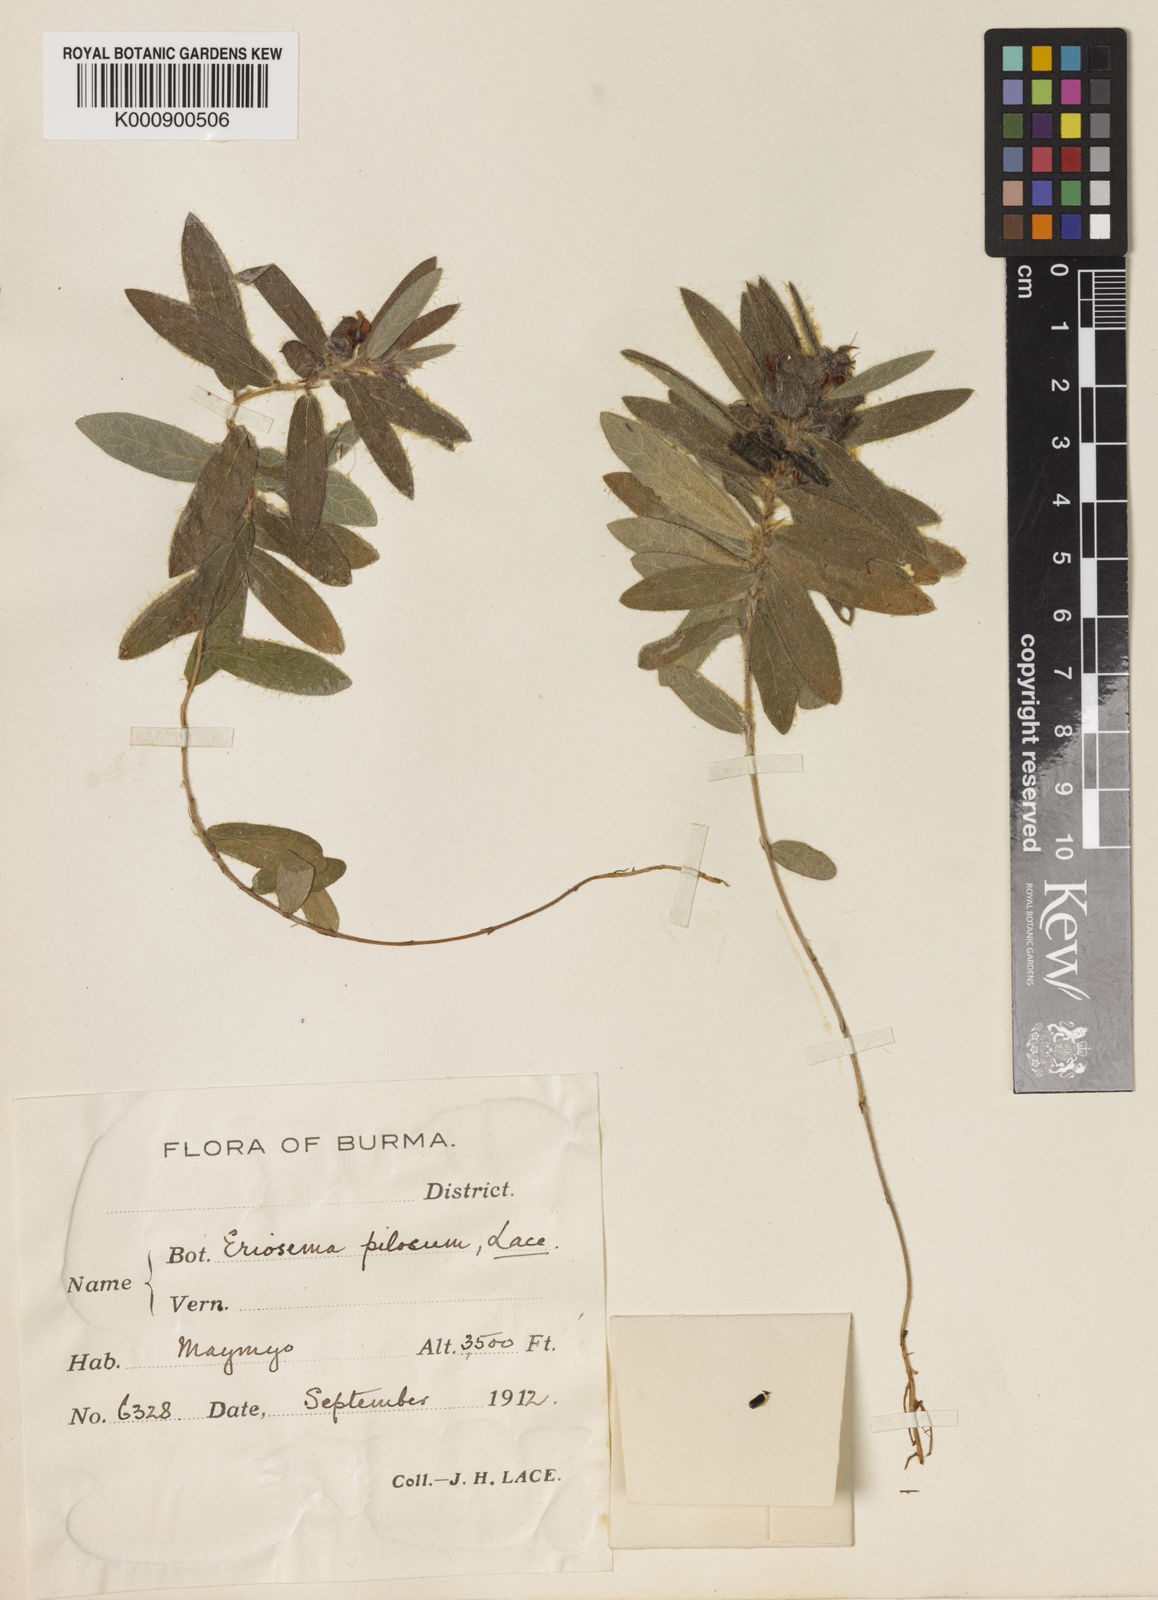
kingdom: Plantae
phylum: Tracheophyta
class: Magnoliopsida
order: Fabales
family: Fabaceae
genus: Eriosema
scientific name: Eriosema pilosum
